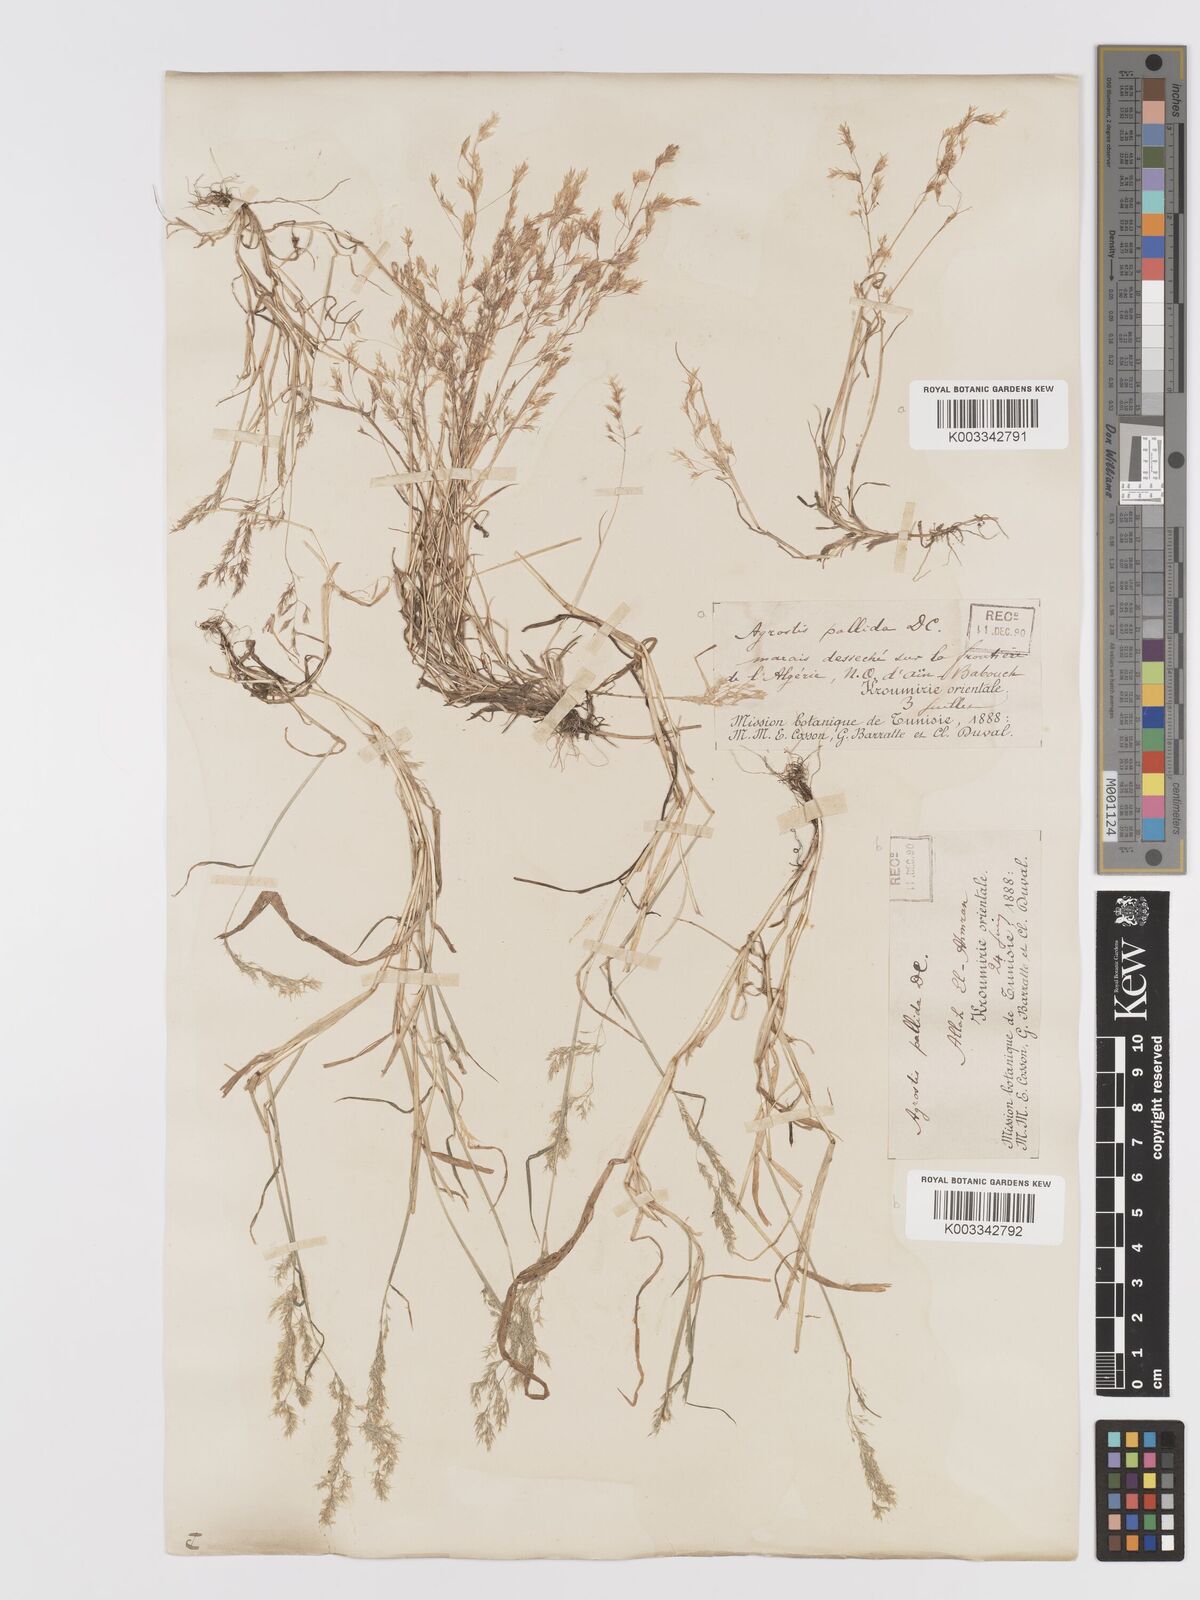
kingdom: Plantae
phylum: Tracheophyta
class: Liliopsida
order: Poales
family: Poaceae
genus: Agrostis
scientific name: Agrostis pourretii
